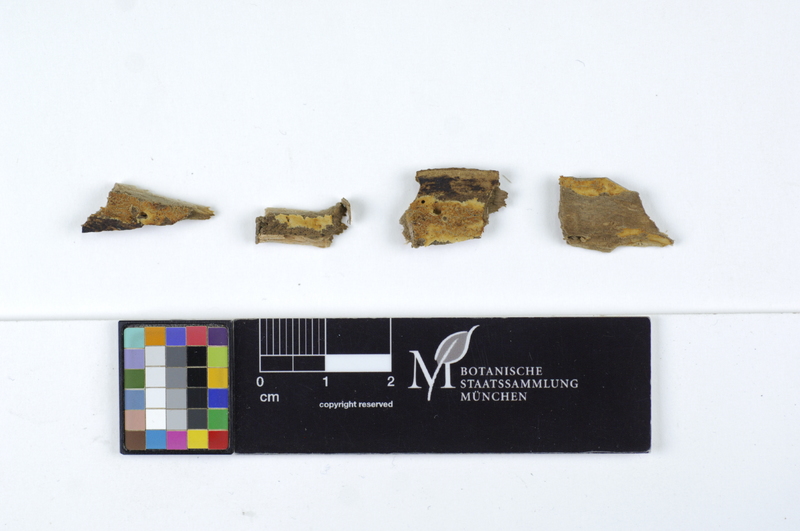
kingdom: Fungi
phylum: Basidiomycota
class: Agaricomycetes
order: Hymenochaetales
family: Rickenellaceae
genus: Odonticium
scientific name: Odonticium septocystidia
